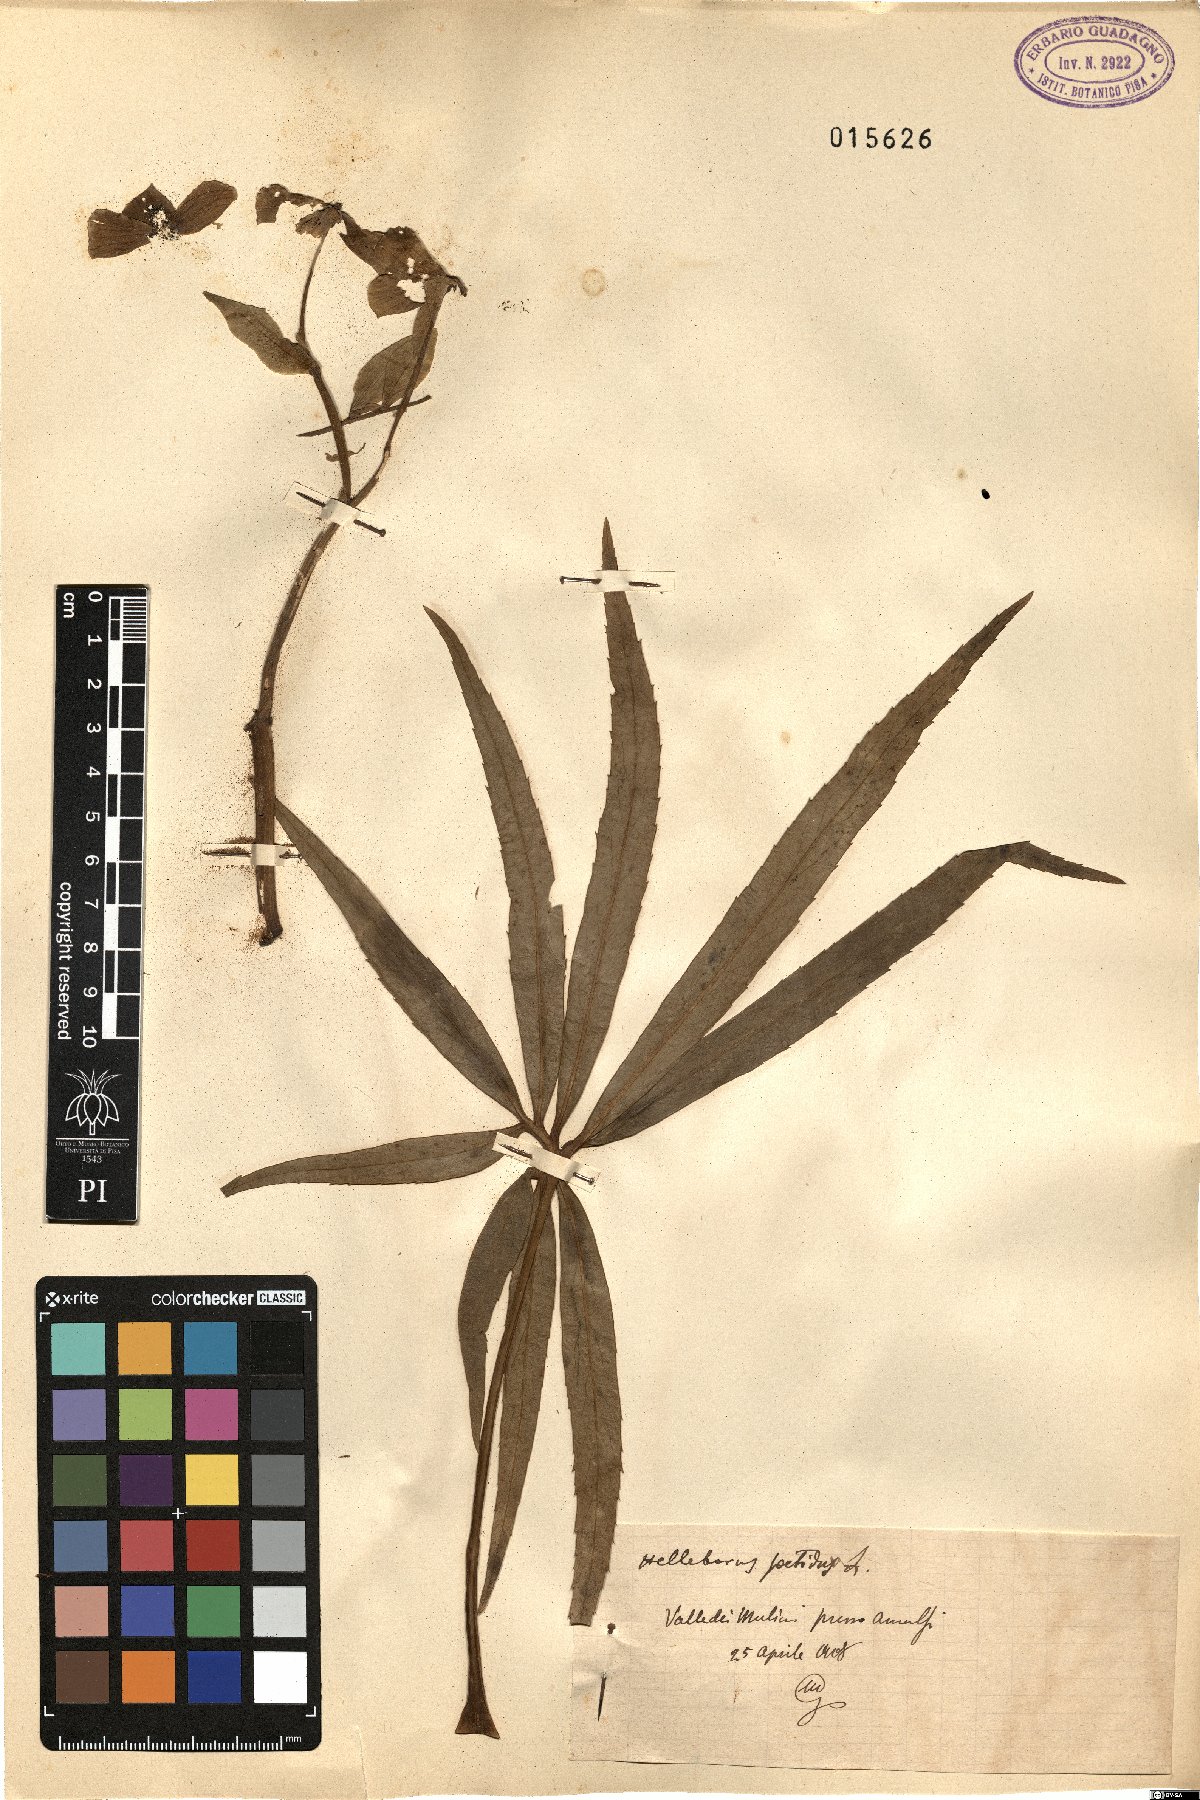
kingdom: Plantae
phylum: Tracheophyta
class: Magnoliopsida
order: Ranunculales
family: Ranunculaceae
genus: Helleborus
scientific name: Helleborus foetidus
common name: Stinking hellebore
